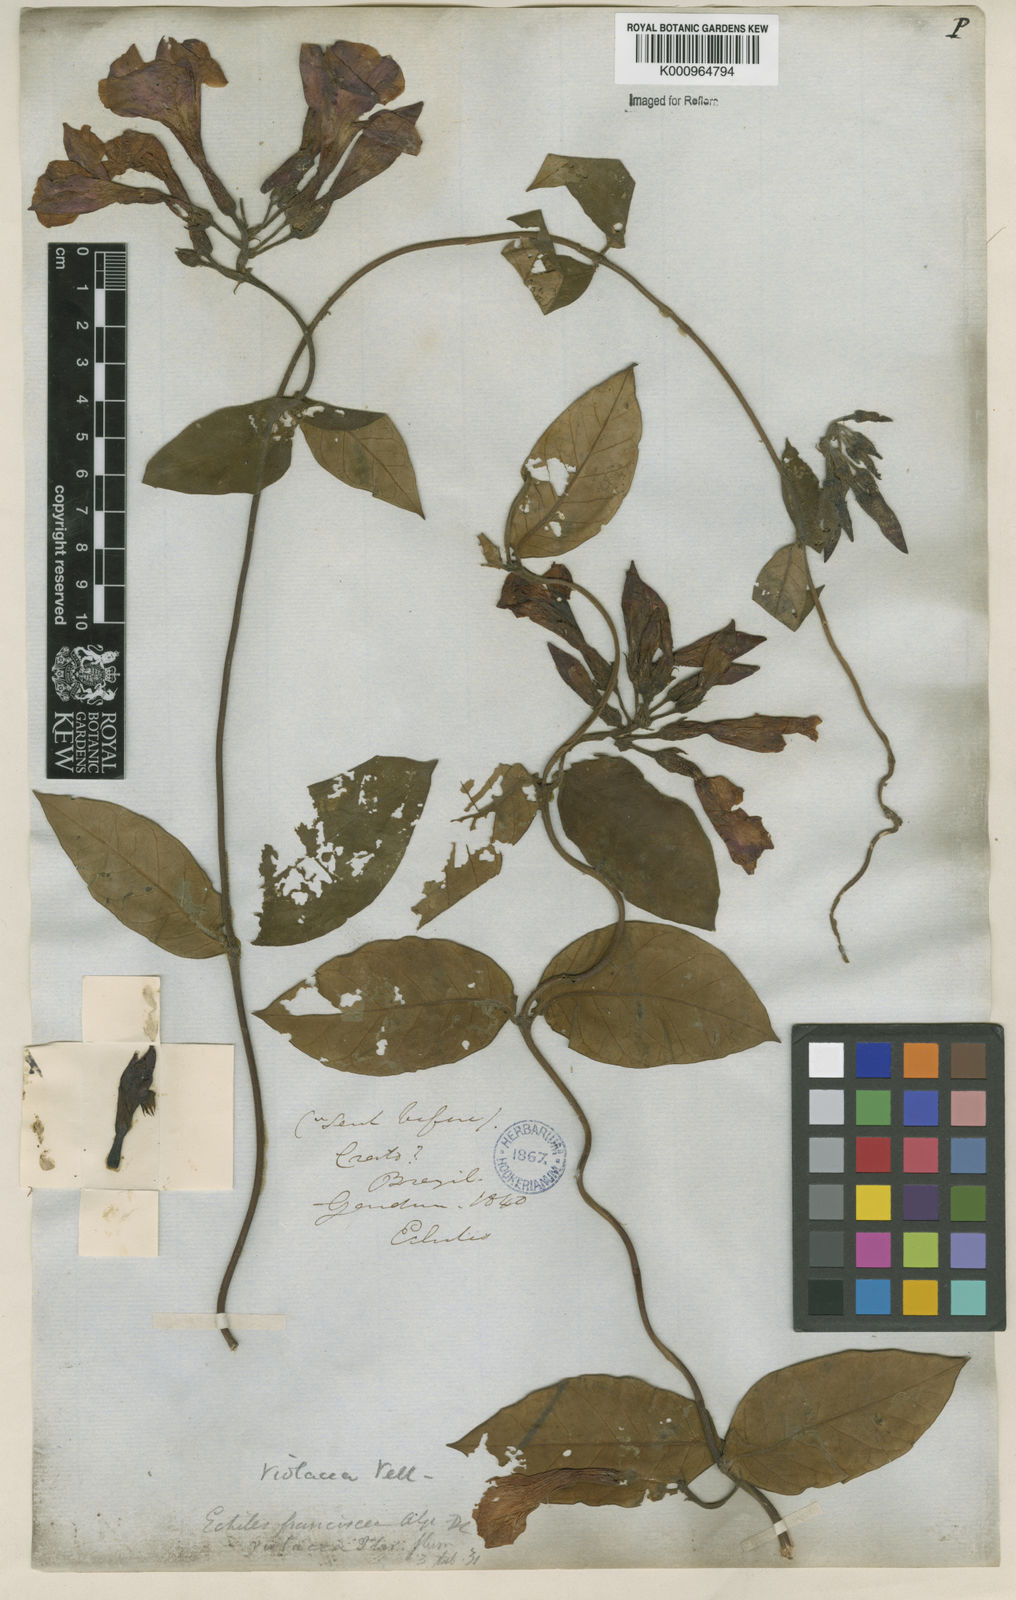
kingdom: Plantae
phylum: Tracheophyta
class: Magnoliopsida
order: Gentianales
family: Apocynaceae
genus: Temnadenia
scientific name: Temnadenia violacea
